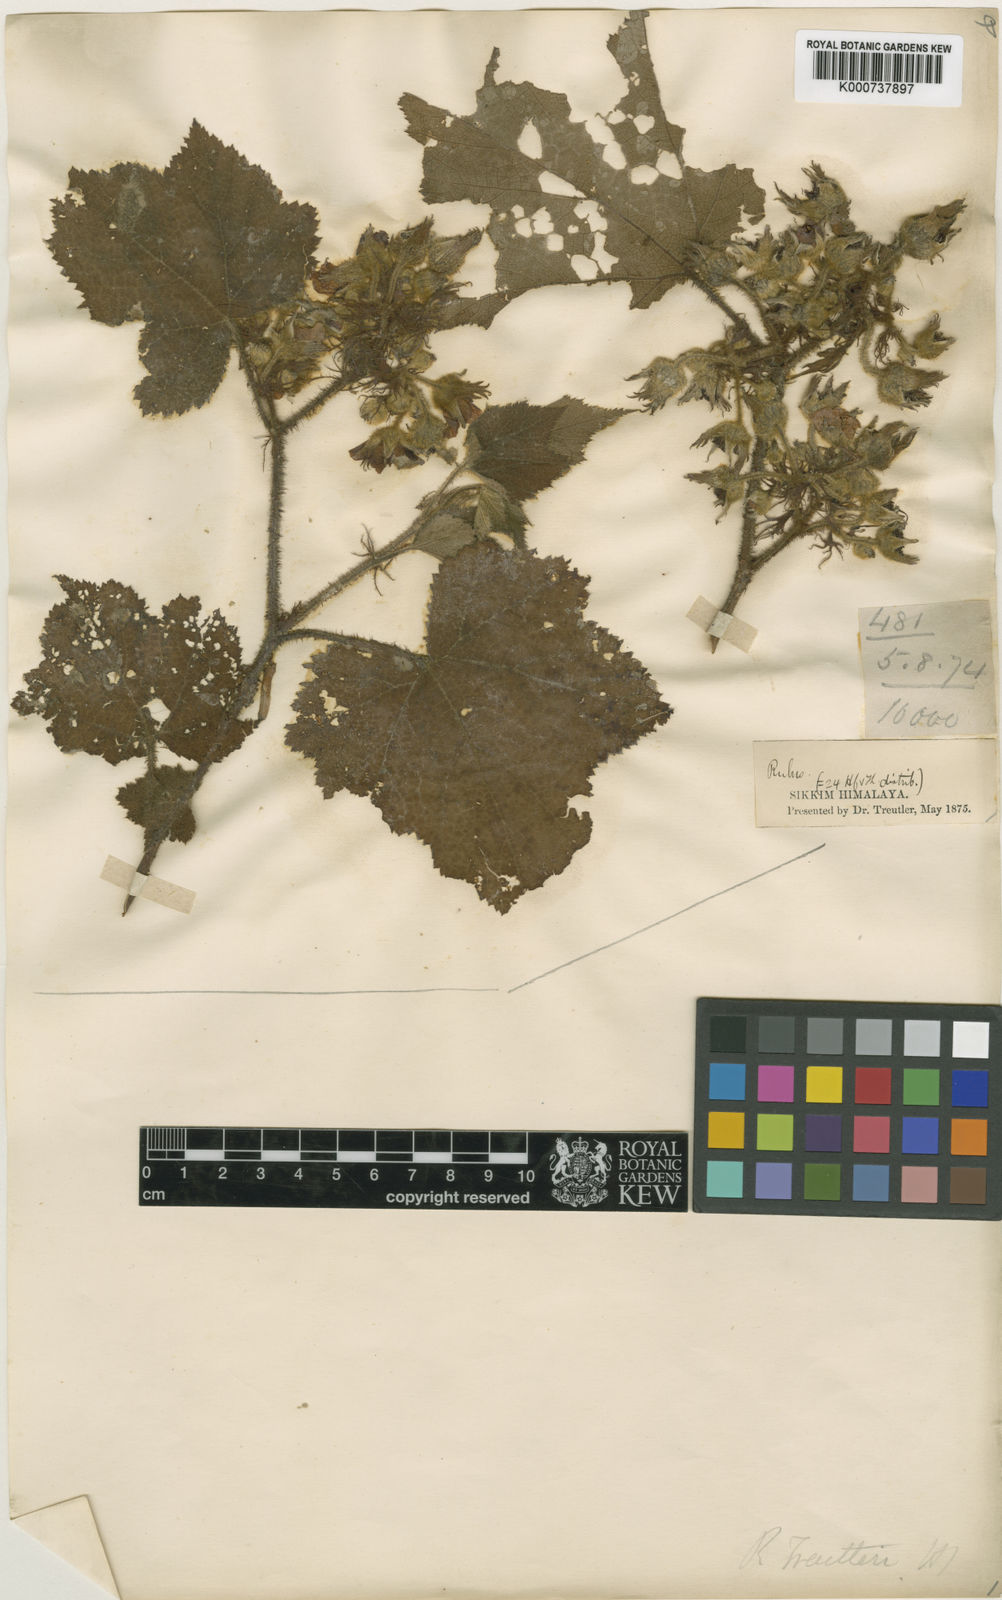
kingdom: Plantae
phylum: Tracheophyta
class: Magnoliopsida
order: Rosales
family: Rosaceae
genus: Rubus
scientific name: Rubus treutleri
